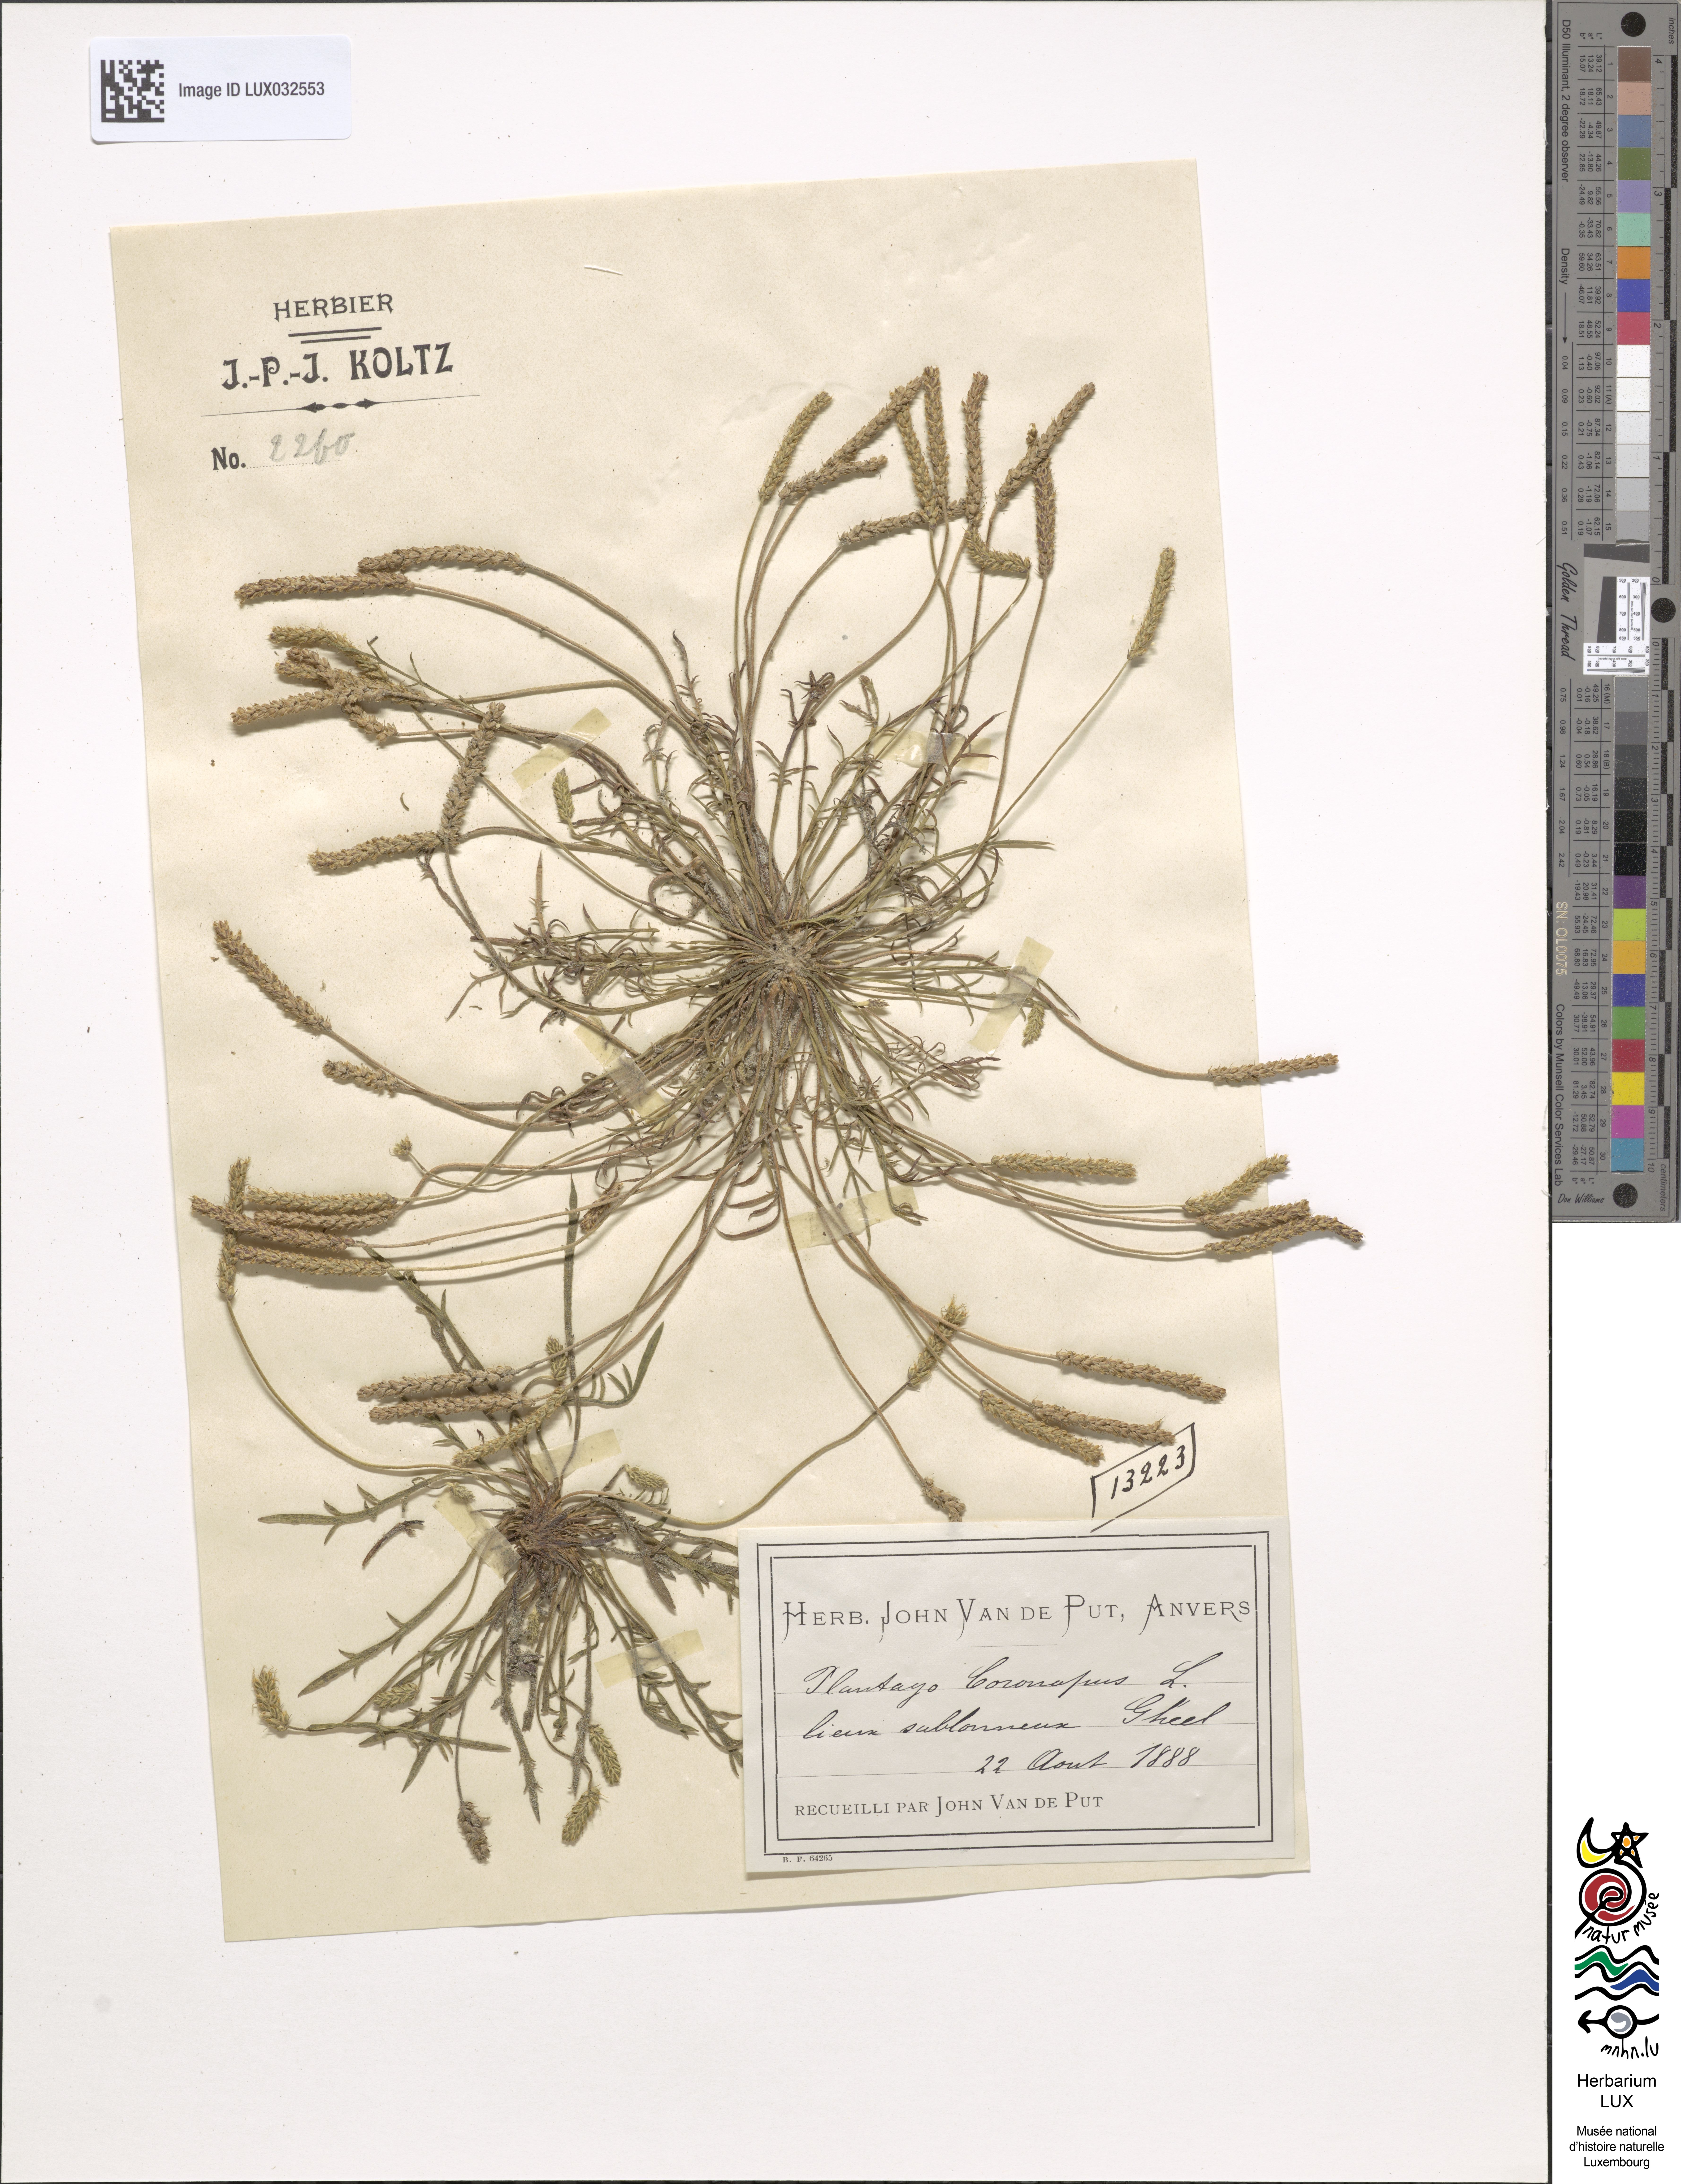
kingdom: Plantae
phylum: Tracheophyta
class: Magnoliopsida
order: Lamiales
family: Plantaginaceae
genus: Plantago
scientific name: Plantago coronopus
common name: Buck's-horn plantain
